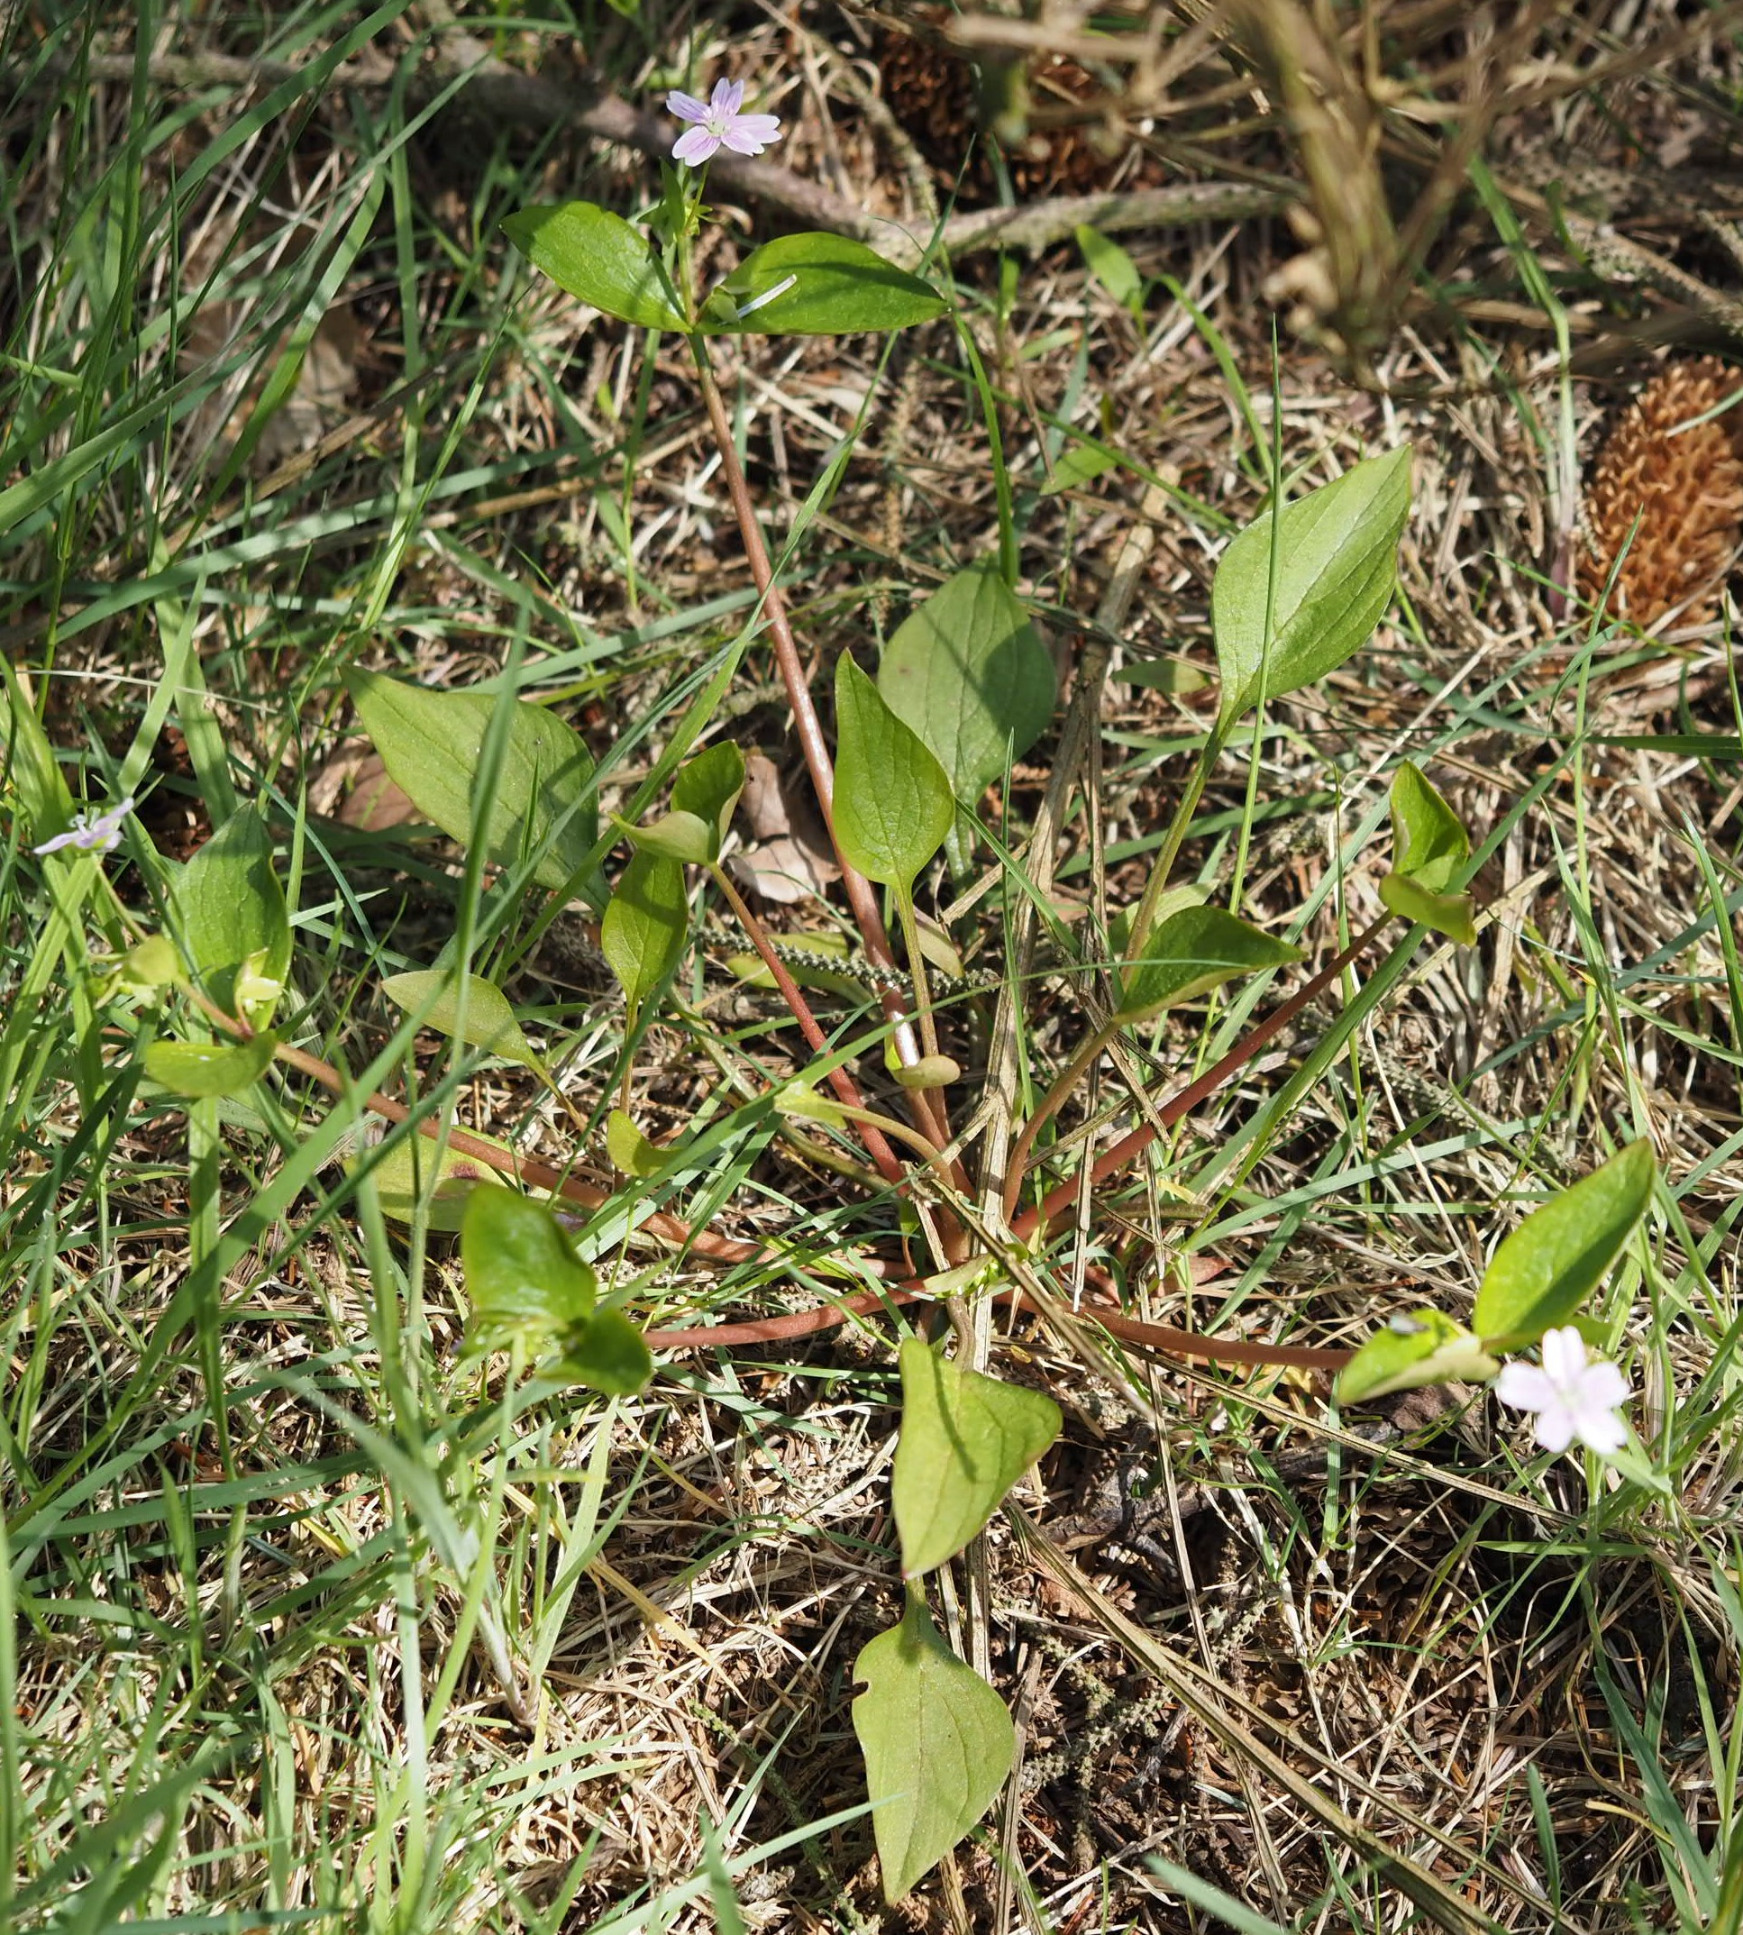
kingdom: Plantae
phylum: Tracheophyta
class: Magnoliopsida
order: Caryophyllales
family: Montiaceae
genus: Claytonia
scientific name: Claytonia sibirica
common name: Sibirisk vinterportulak
